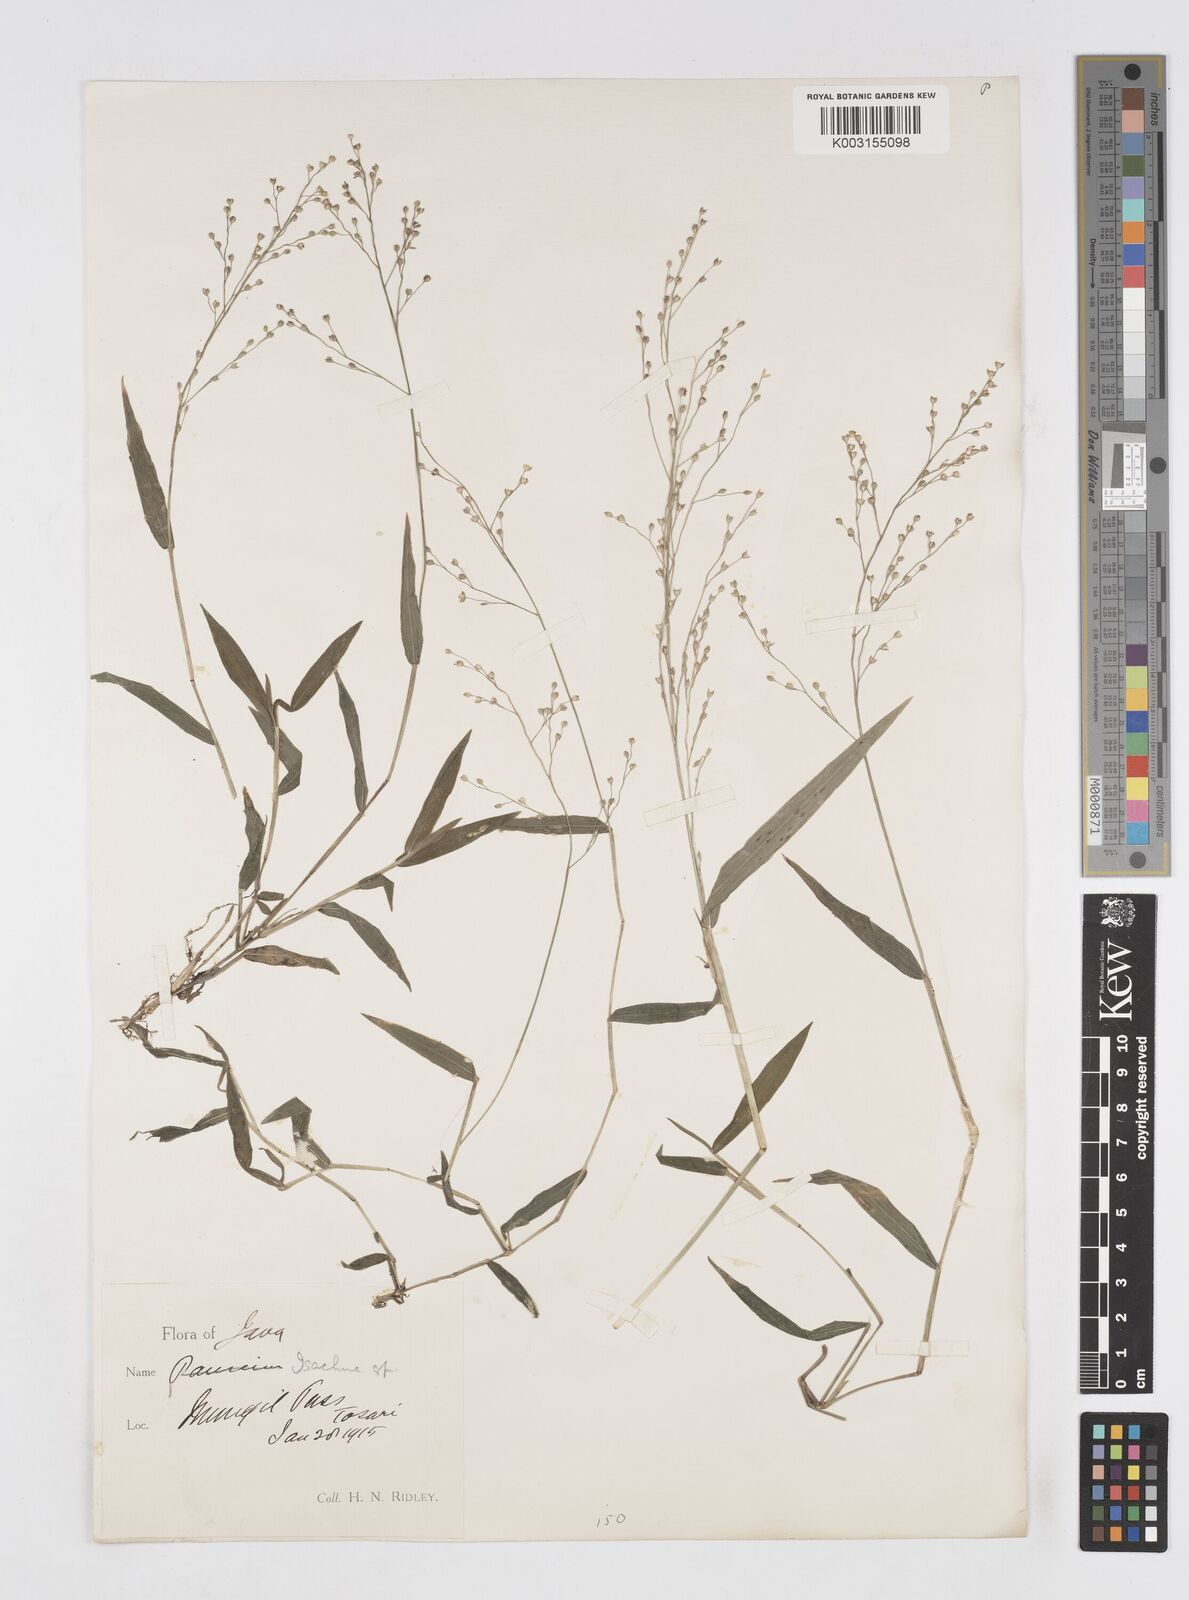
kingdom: Plantae
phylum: Tracheophyta
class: Liliopsida
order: Poales
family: Poaceae
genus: Isachne
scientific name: Isachne
